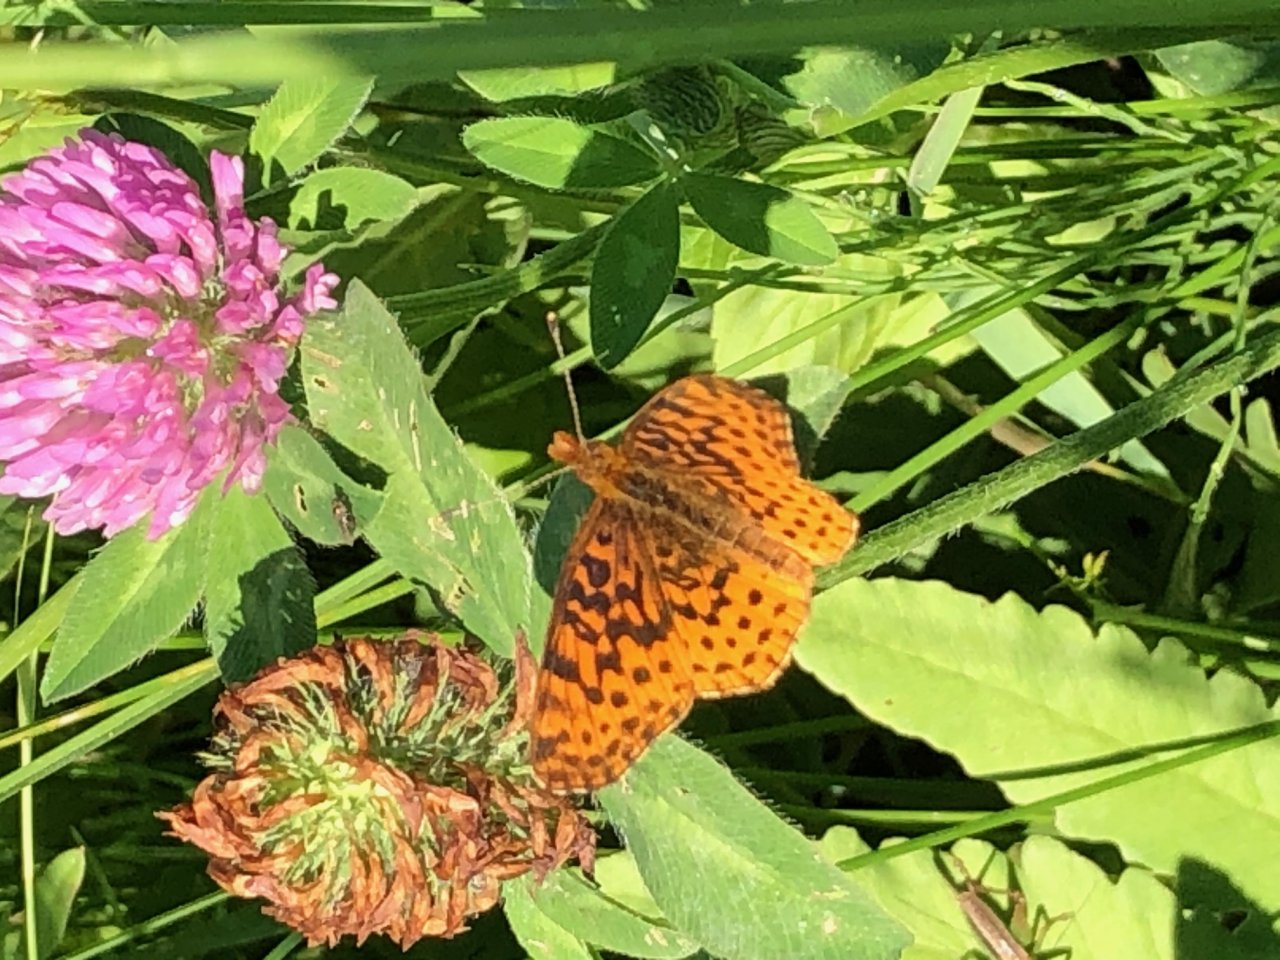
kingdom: Animalia
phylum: Arthropoda
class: Insecta
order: Lepidoptera
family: Nymphalidae
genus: Clossiana
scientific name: Clossiana toddi
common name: Meadow Fritillary
